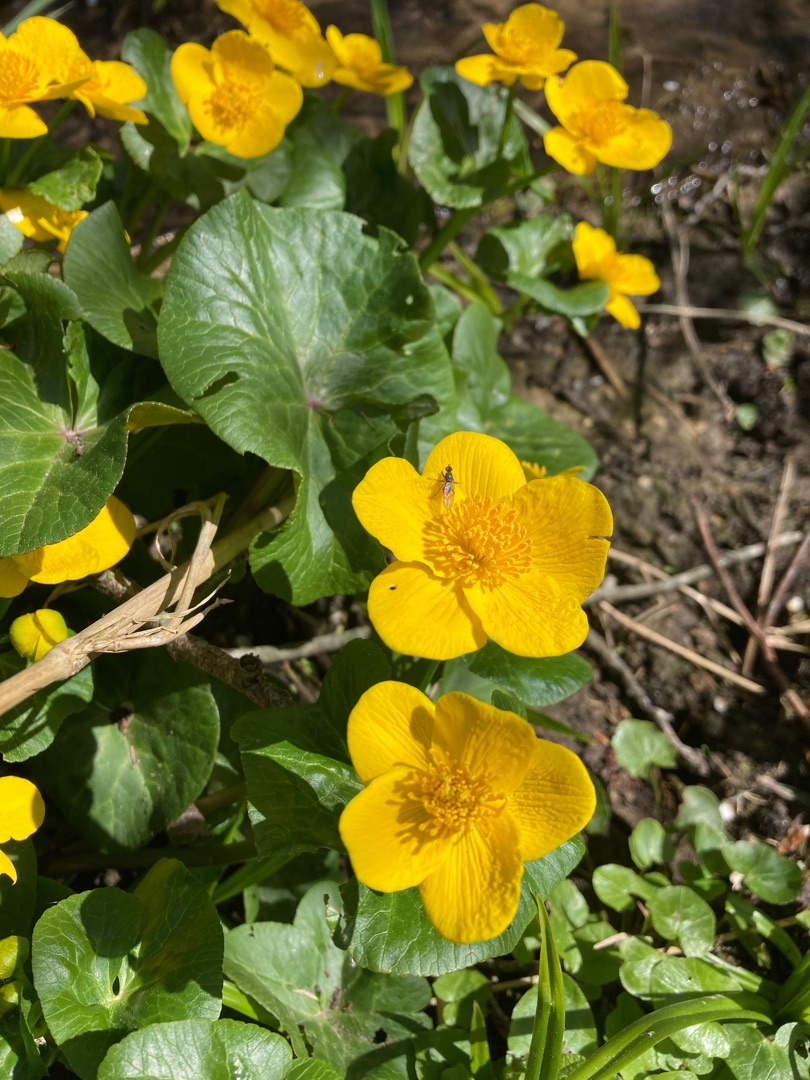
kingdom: Plantae
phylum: Tracheophyta
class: Magnoliopsida
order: Ranunculales
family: Ranunculaceae
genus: Caltha
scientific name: Caltha palustris
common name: Eng-kabbeleje
